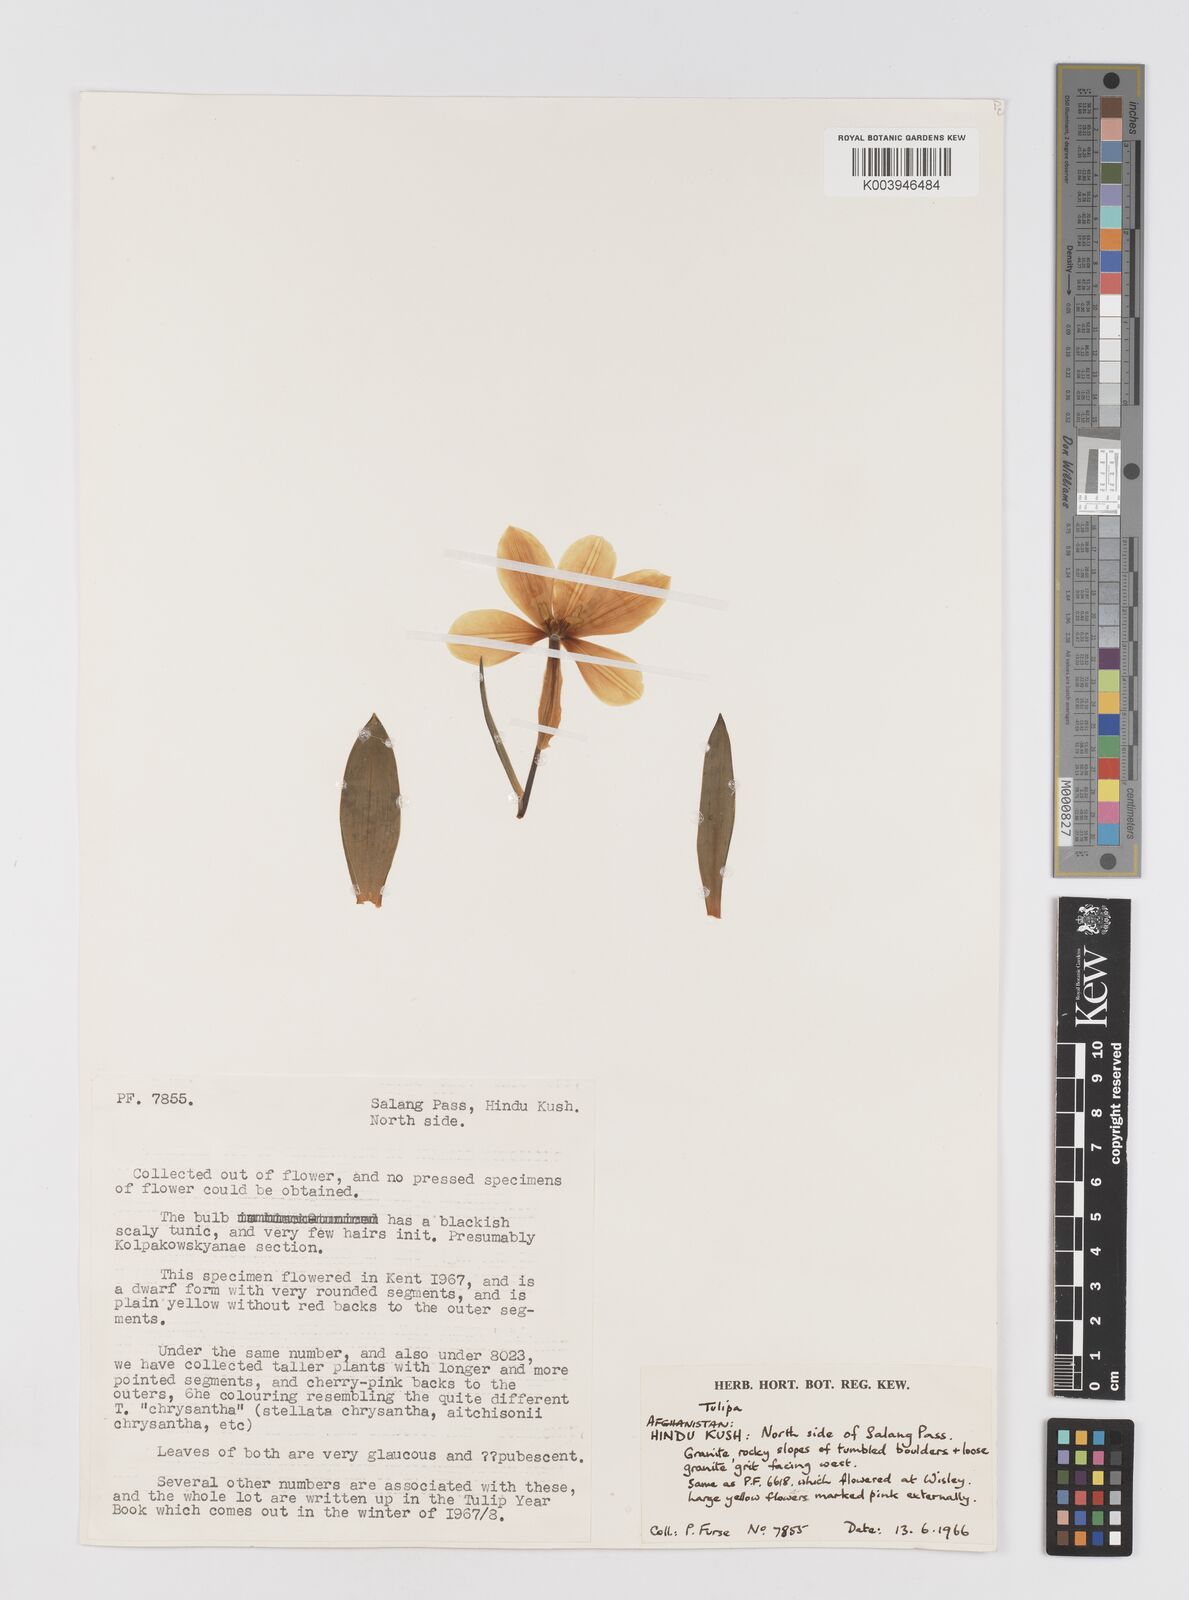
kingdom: Plantae
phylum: Tracheophyta
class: Liliopsida
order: Liliales
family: Liliaceae
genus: Tulipa
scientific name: Tulipa
